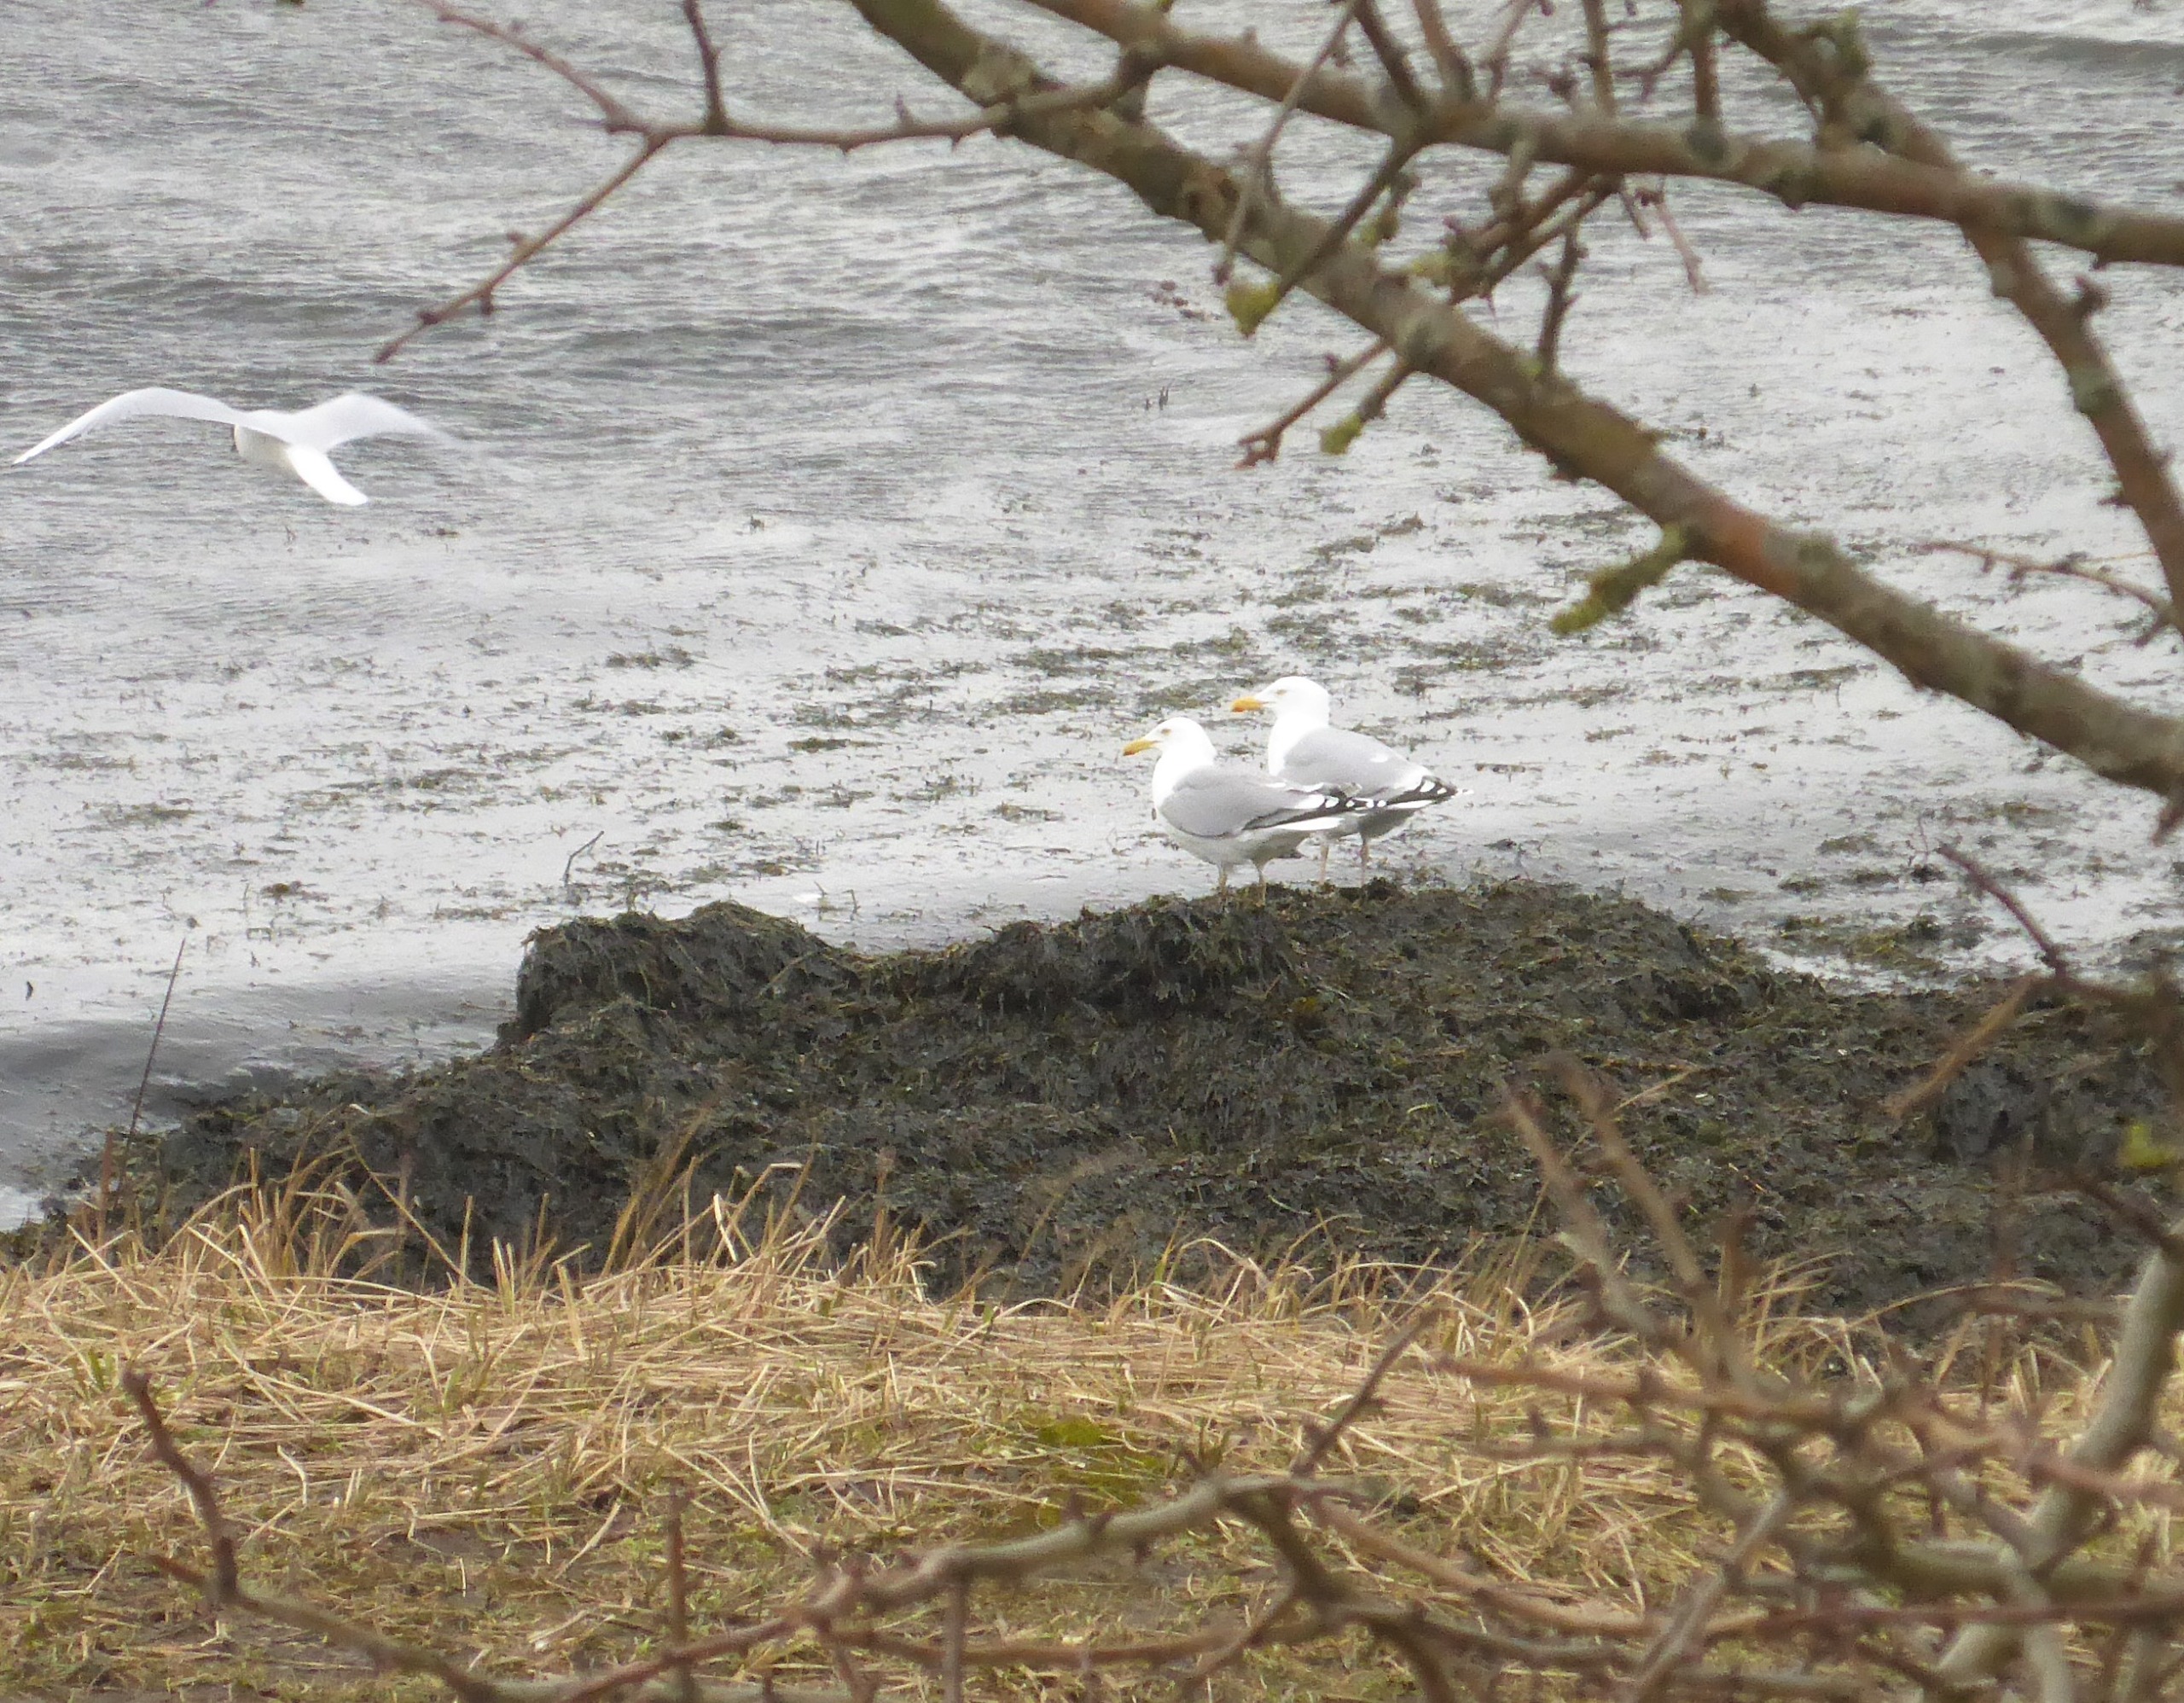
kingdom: Animalia
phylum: Chordata
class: Aves
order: Charadriiformes
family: Laridae
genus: Larus
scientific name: Larus argentatus
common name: Sølvmåge
